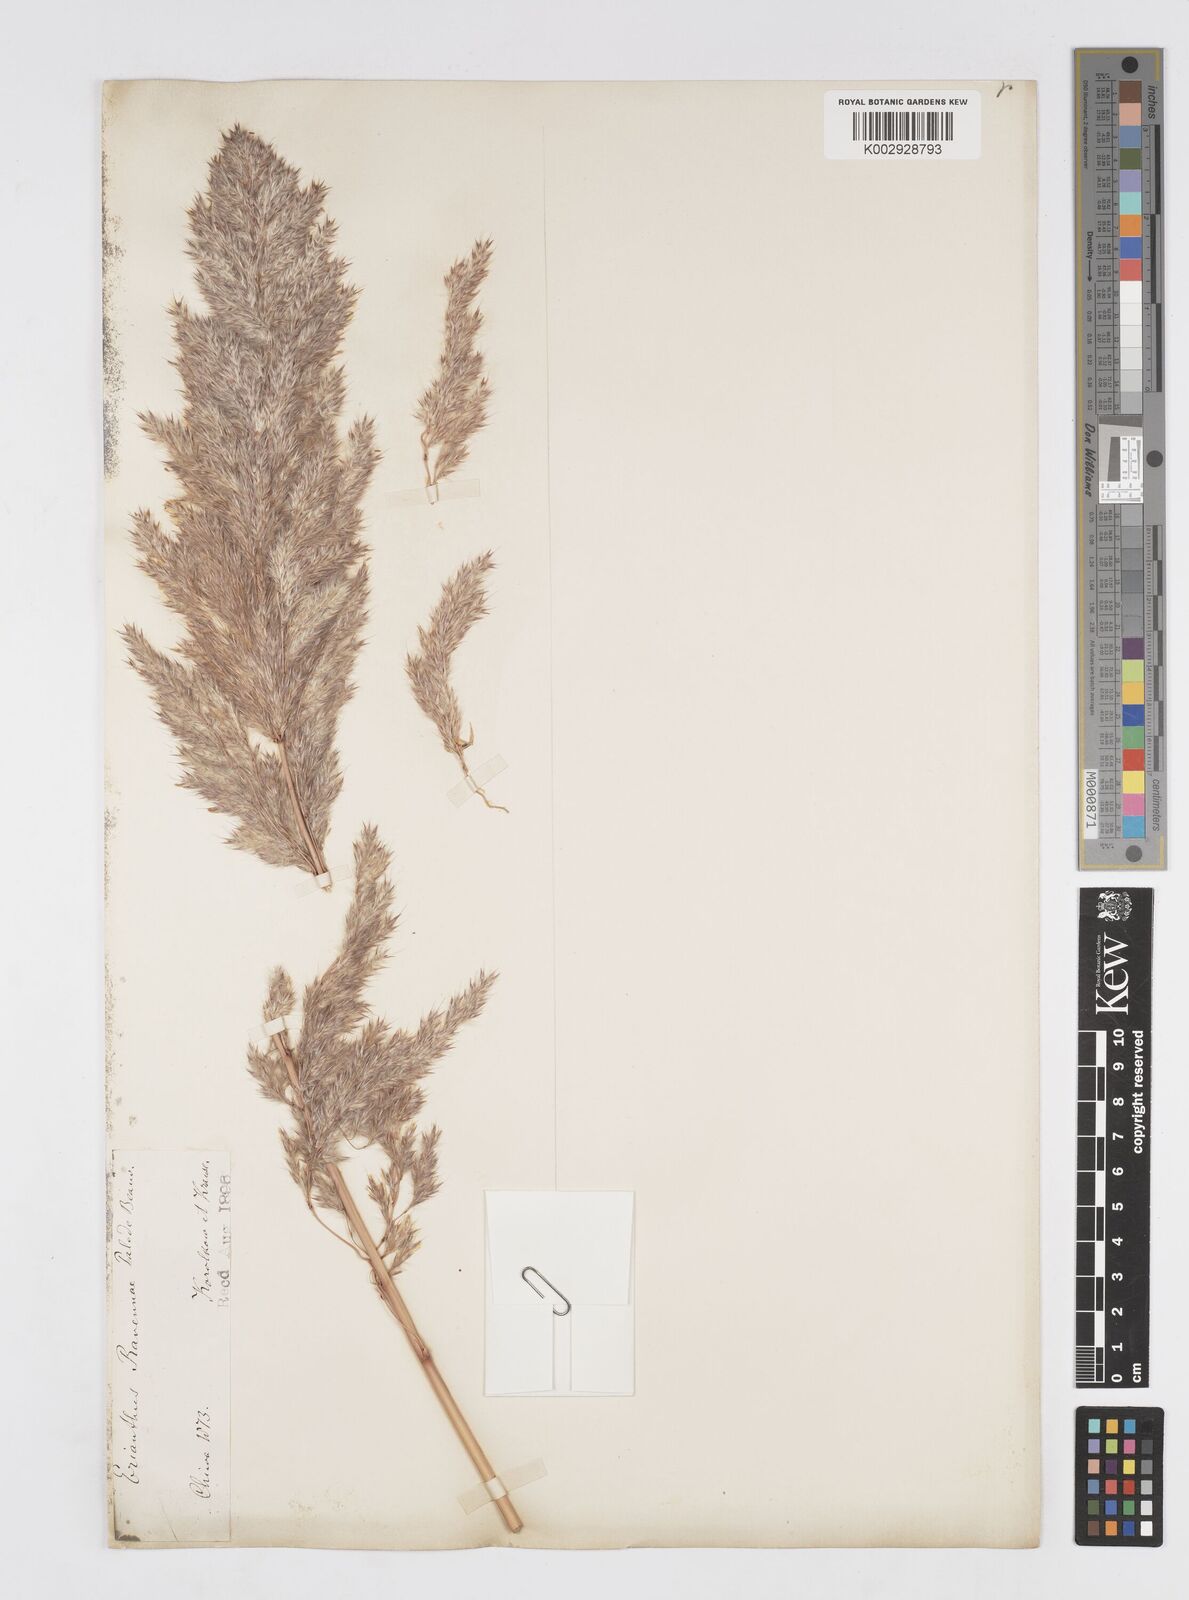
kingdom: Plantae
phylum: Tracheophyta
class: Liliopsida
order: Poales
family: Poaceae
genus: Tripidium
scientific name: Tripidium ravennae
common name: Ravenna grass
